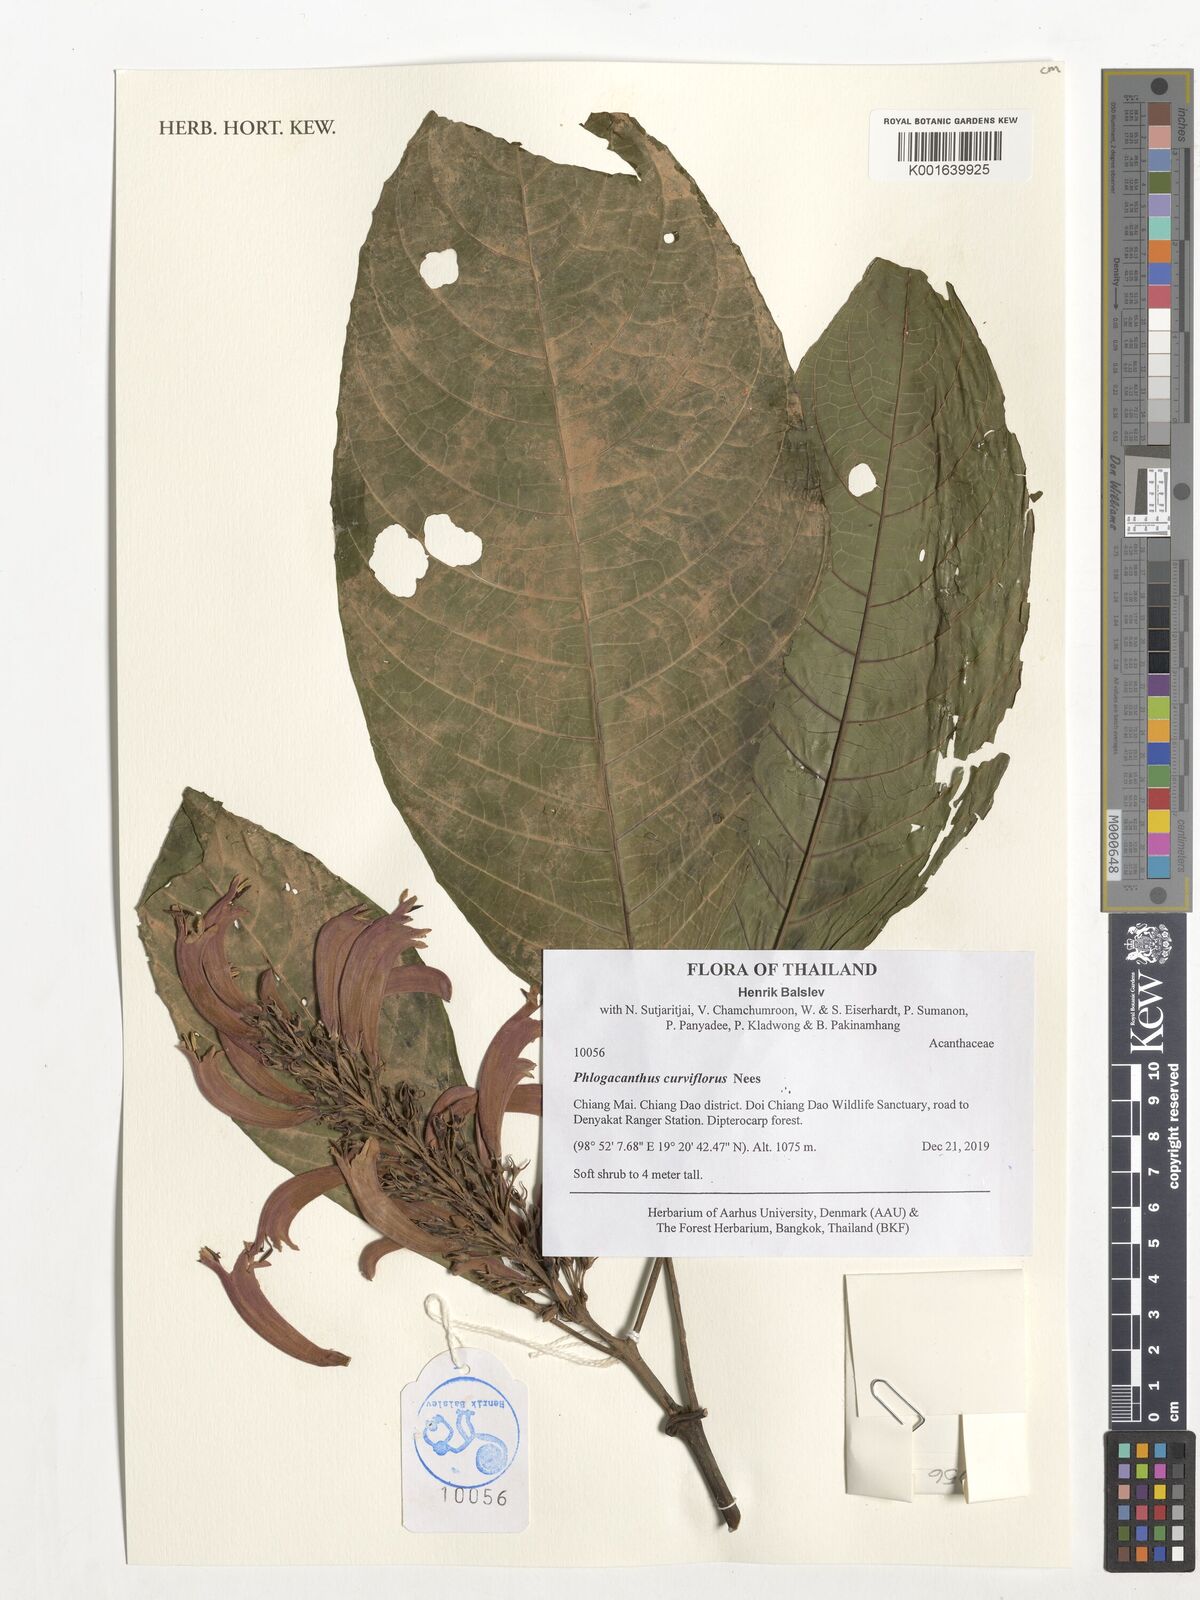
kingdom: Plantae
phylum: Tracheophyta
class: Magnoliopsida
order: Lamiales
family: Acanthaceae
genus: Phlogacanthus
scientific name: Phlogacanthus curviflorus
